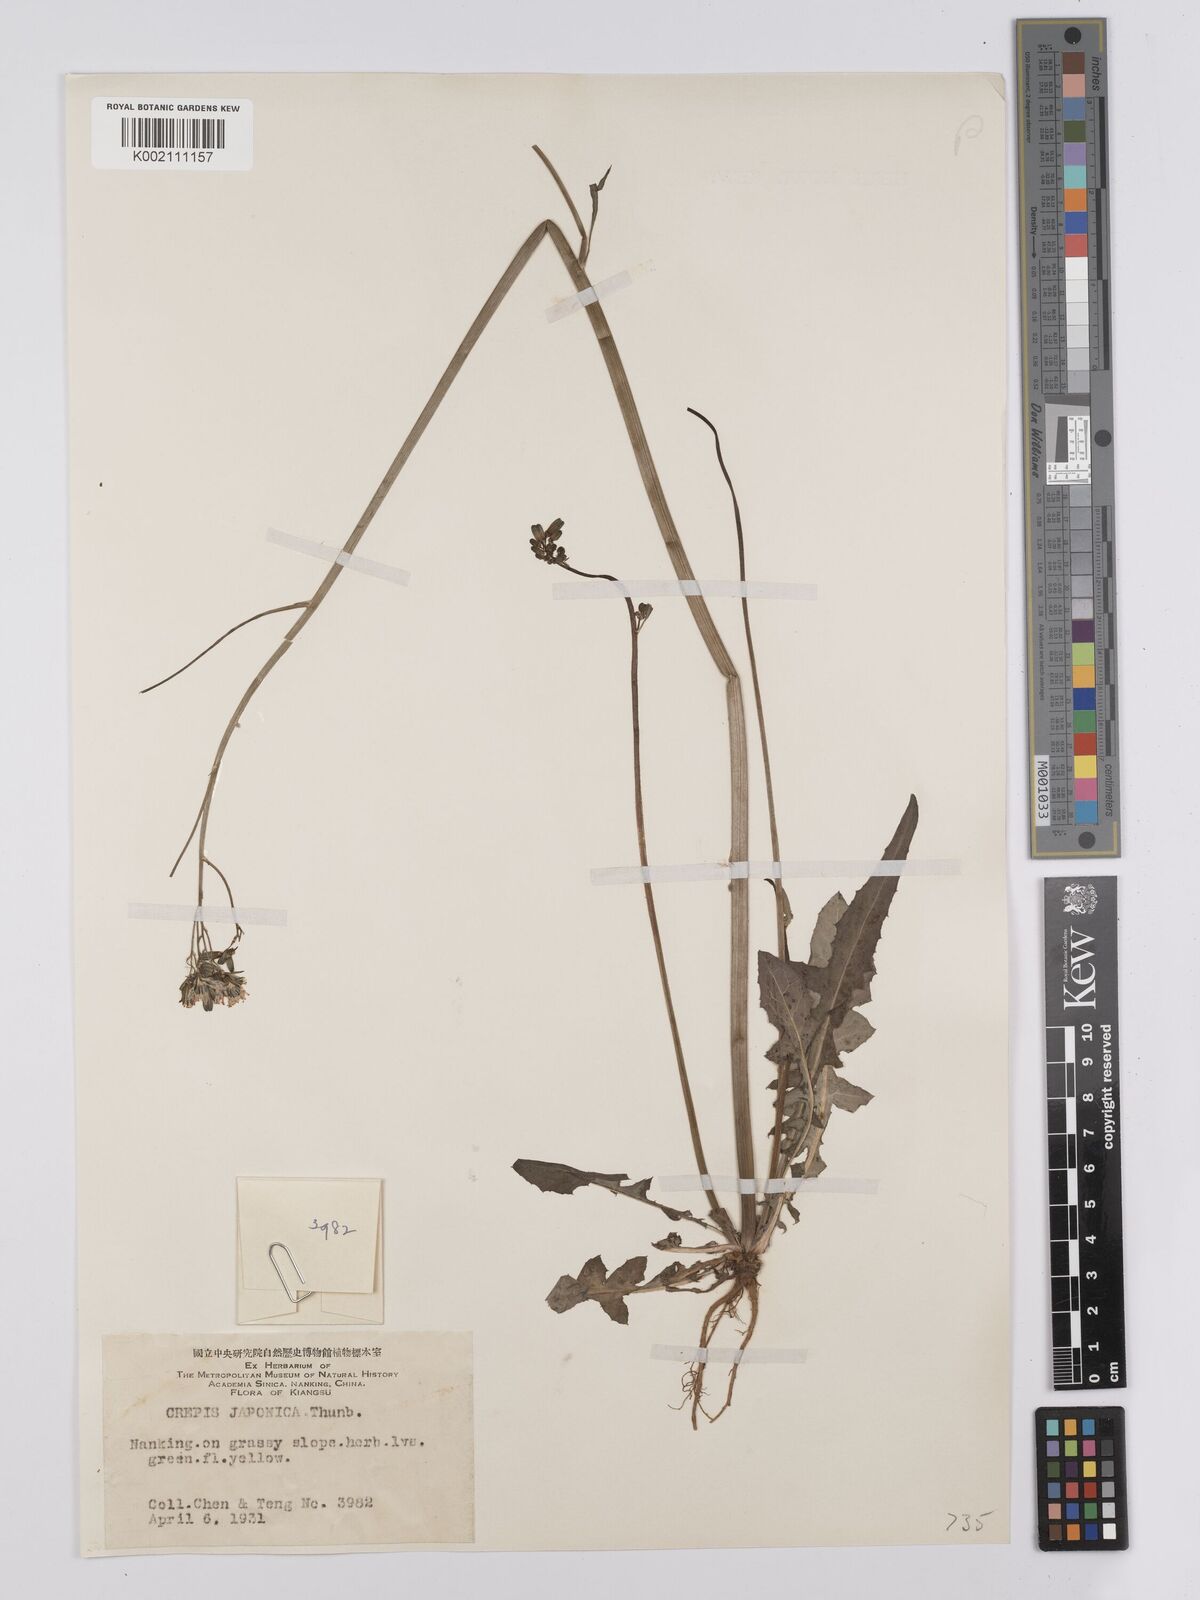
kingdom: Plantae
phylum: Tracheophyta
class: Magnoliopsida
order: Asterales
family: Asteraceae
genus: Youngia
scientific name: Youngia japonica
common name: Oriental false hawksbeard
